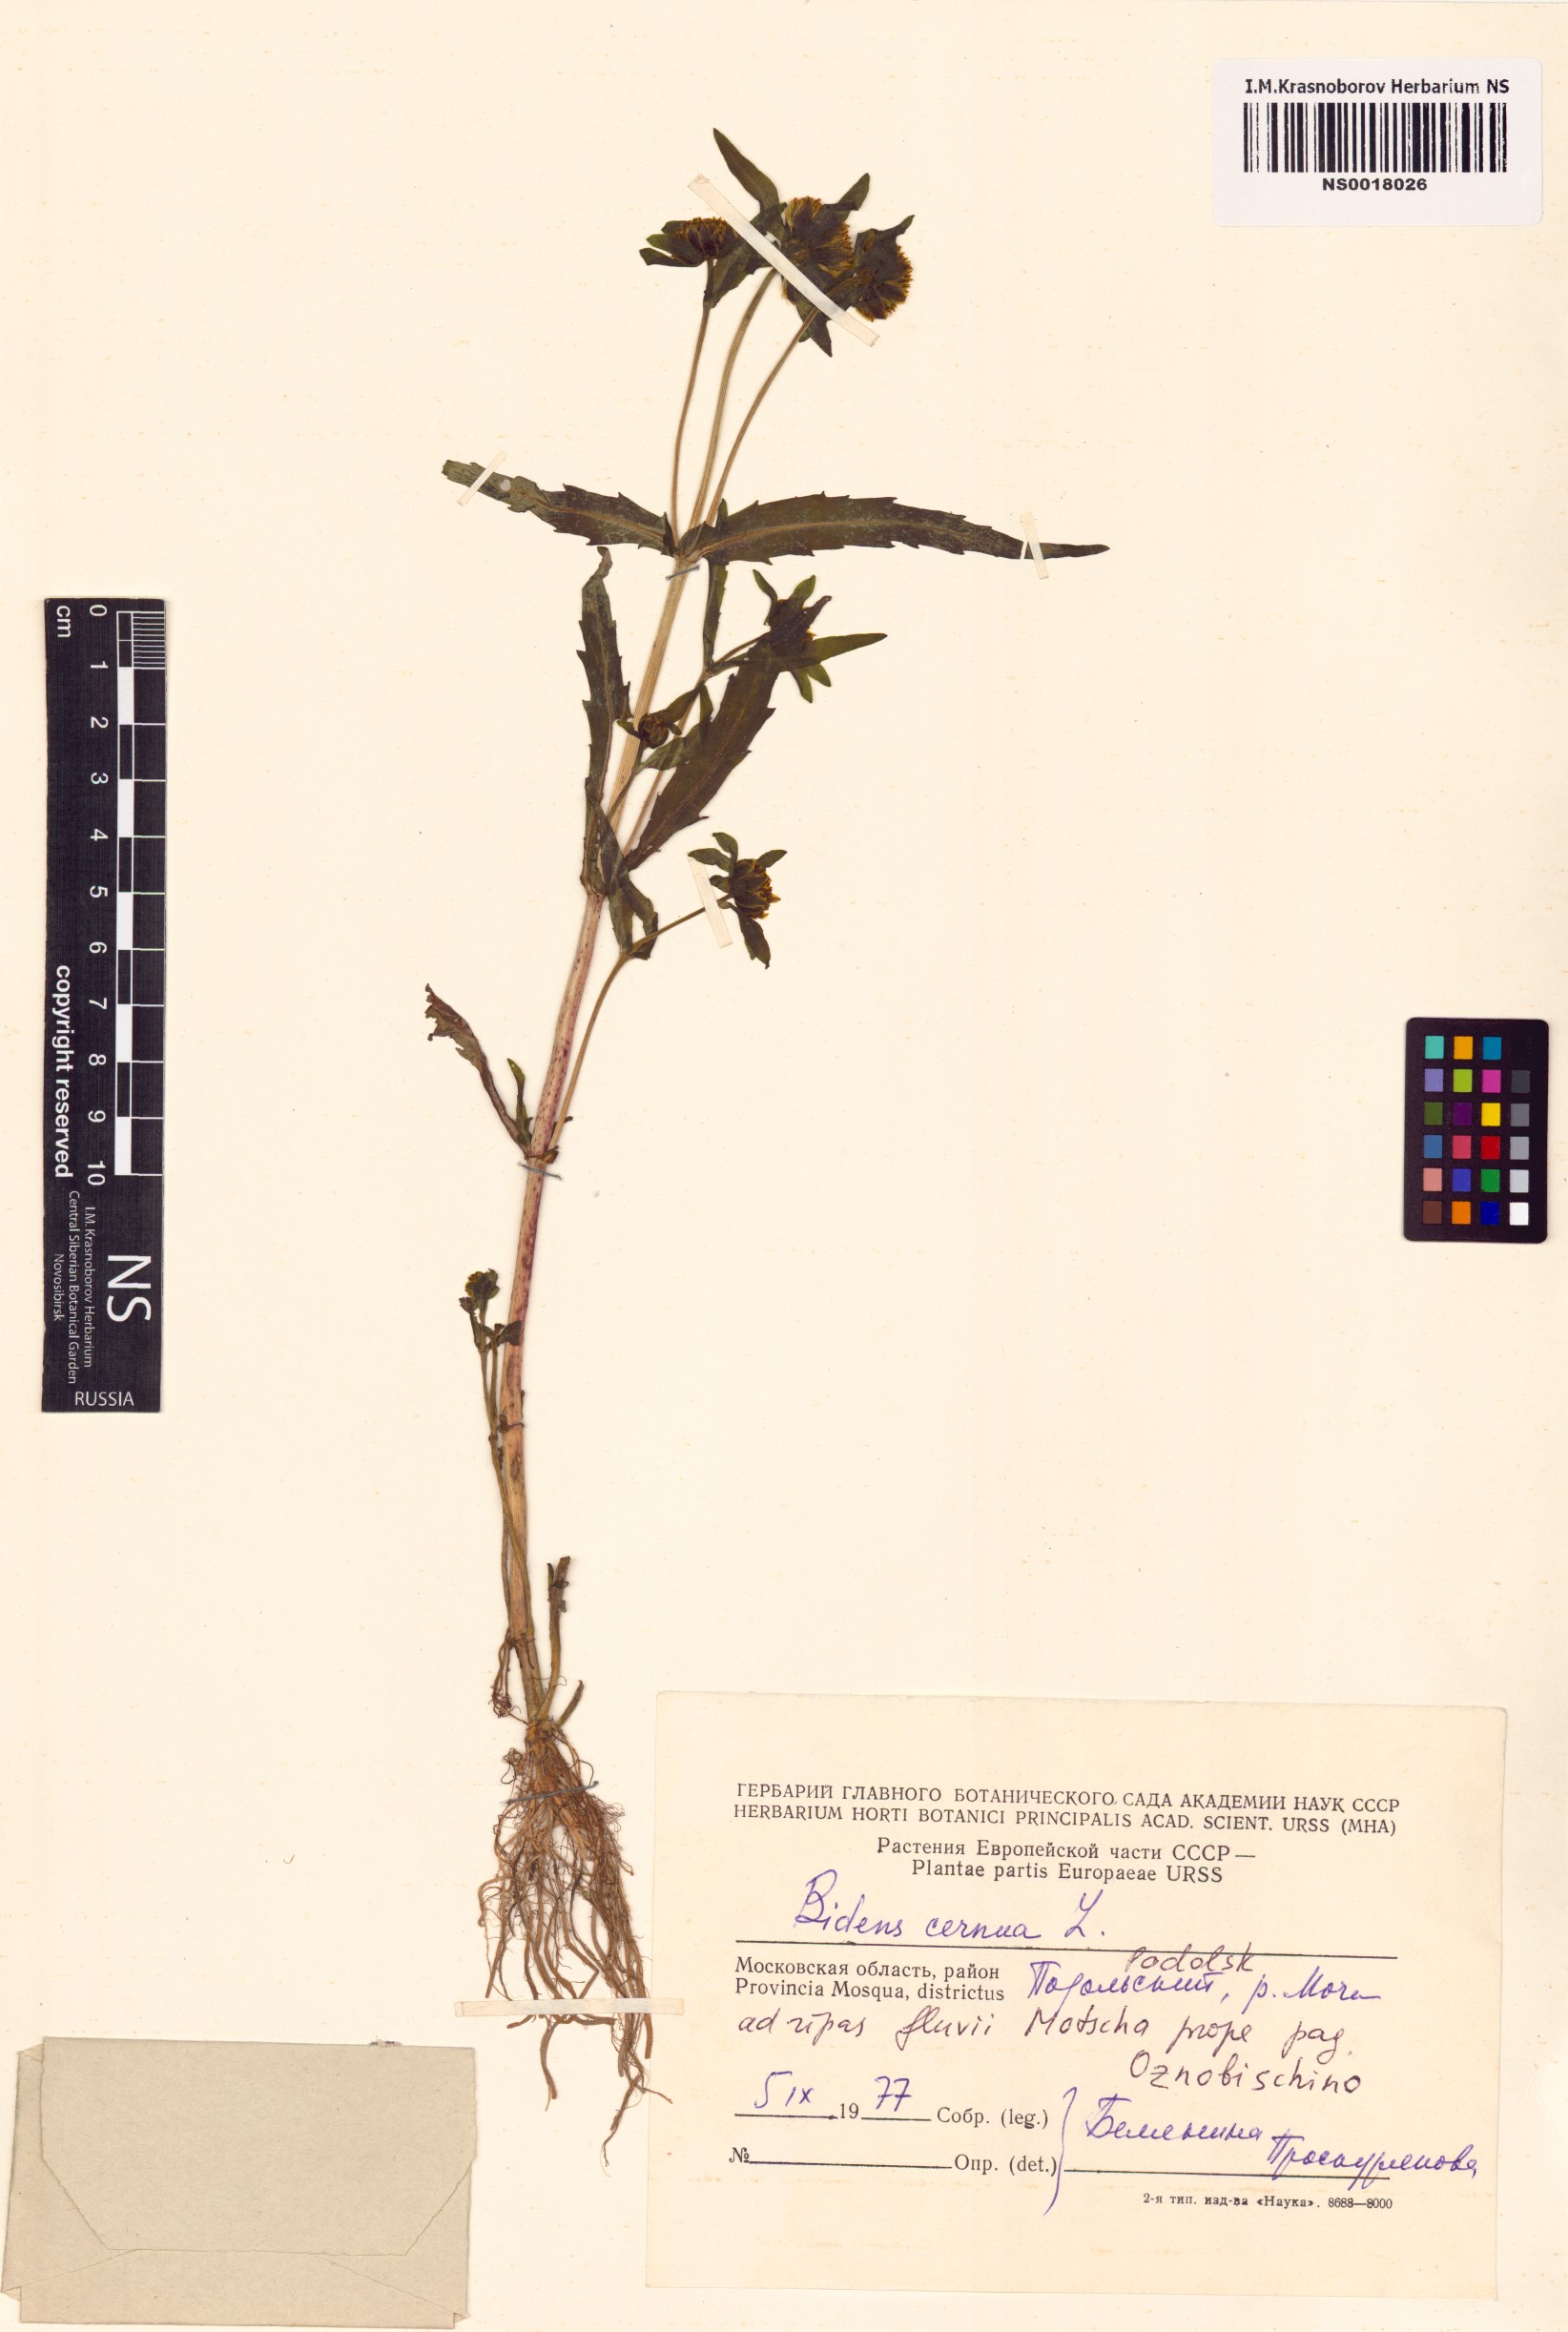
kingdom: Plantae
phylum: Tracheophyta
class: Magnoliopsida
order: Asterales
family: Asteraceae
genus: Bidens
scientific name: Bidens cernua
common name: Nodding bur-marigold
